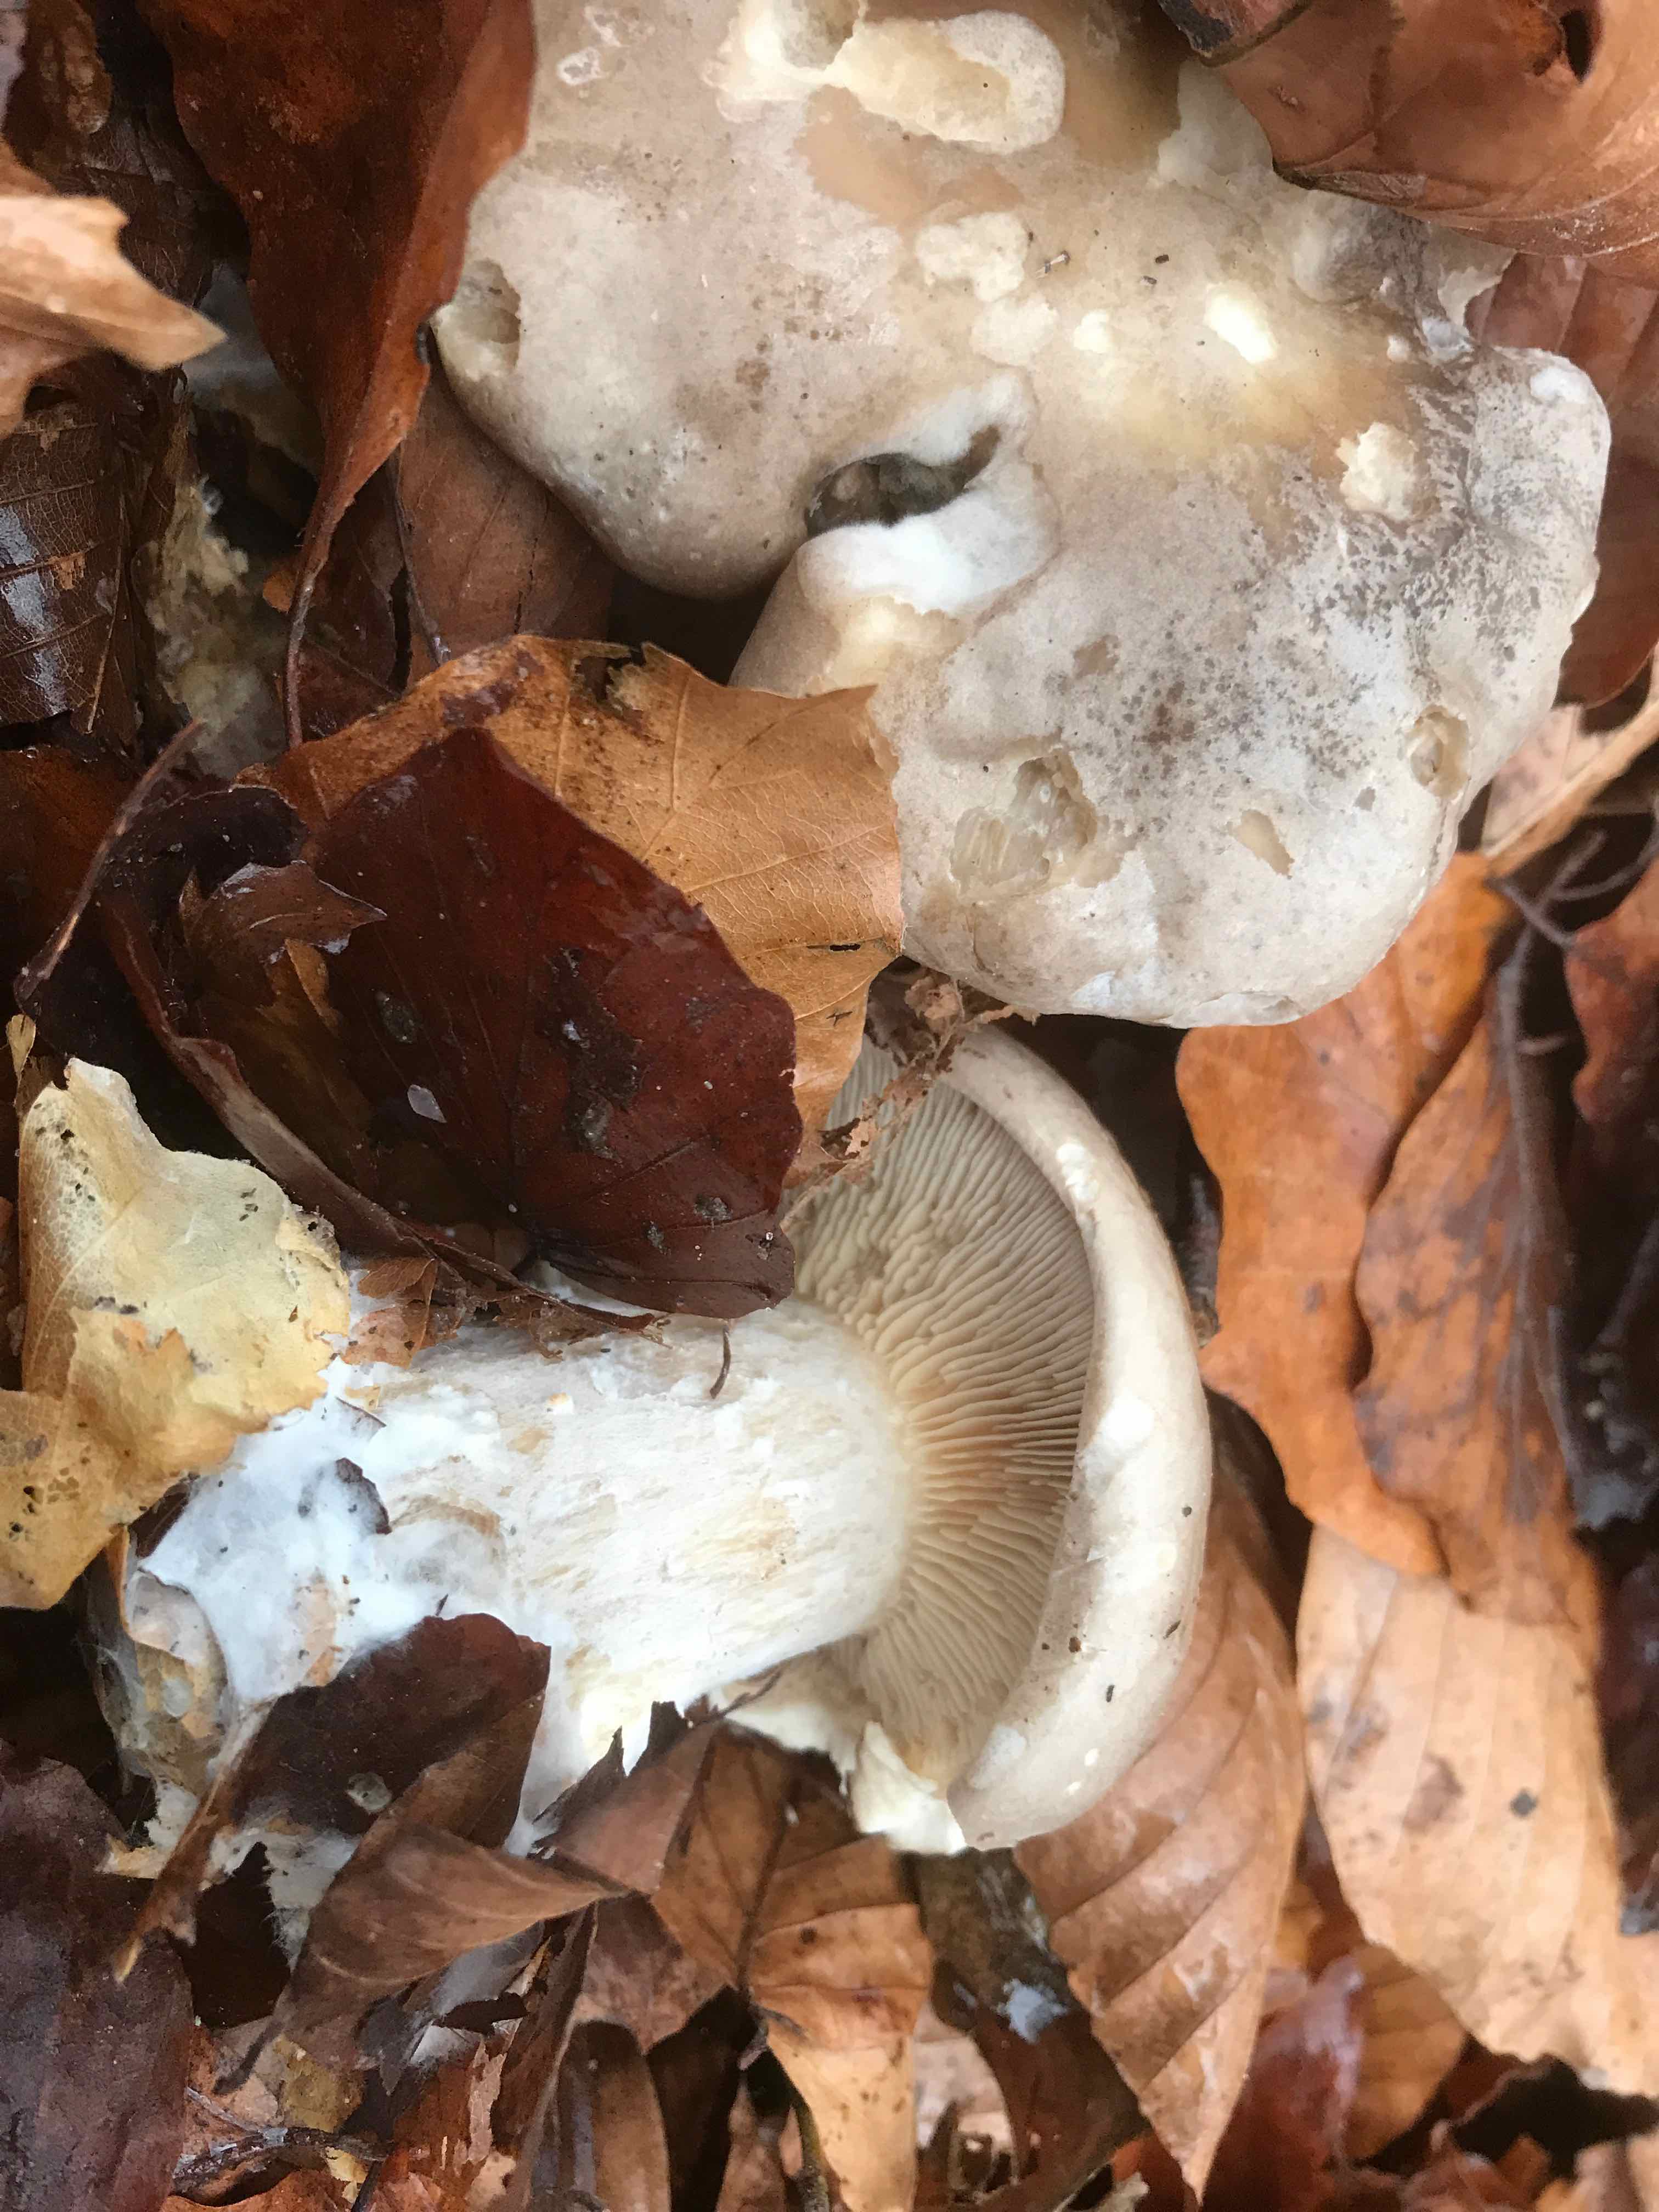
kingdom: Fungi
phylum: Basidiomycota
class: Agaricomycetes
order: Agaricales
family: Tricholomataceae
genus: Clitocybe
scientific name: Clitocybe nebularis
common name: tåge-tragthat
